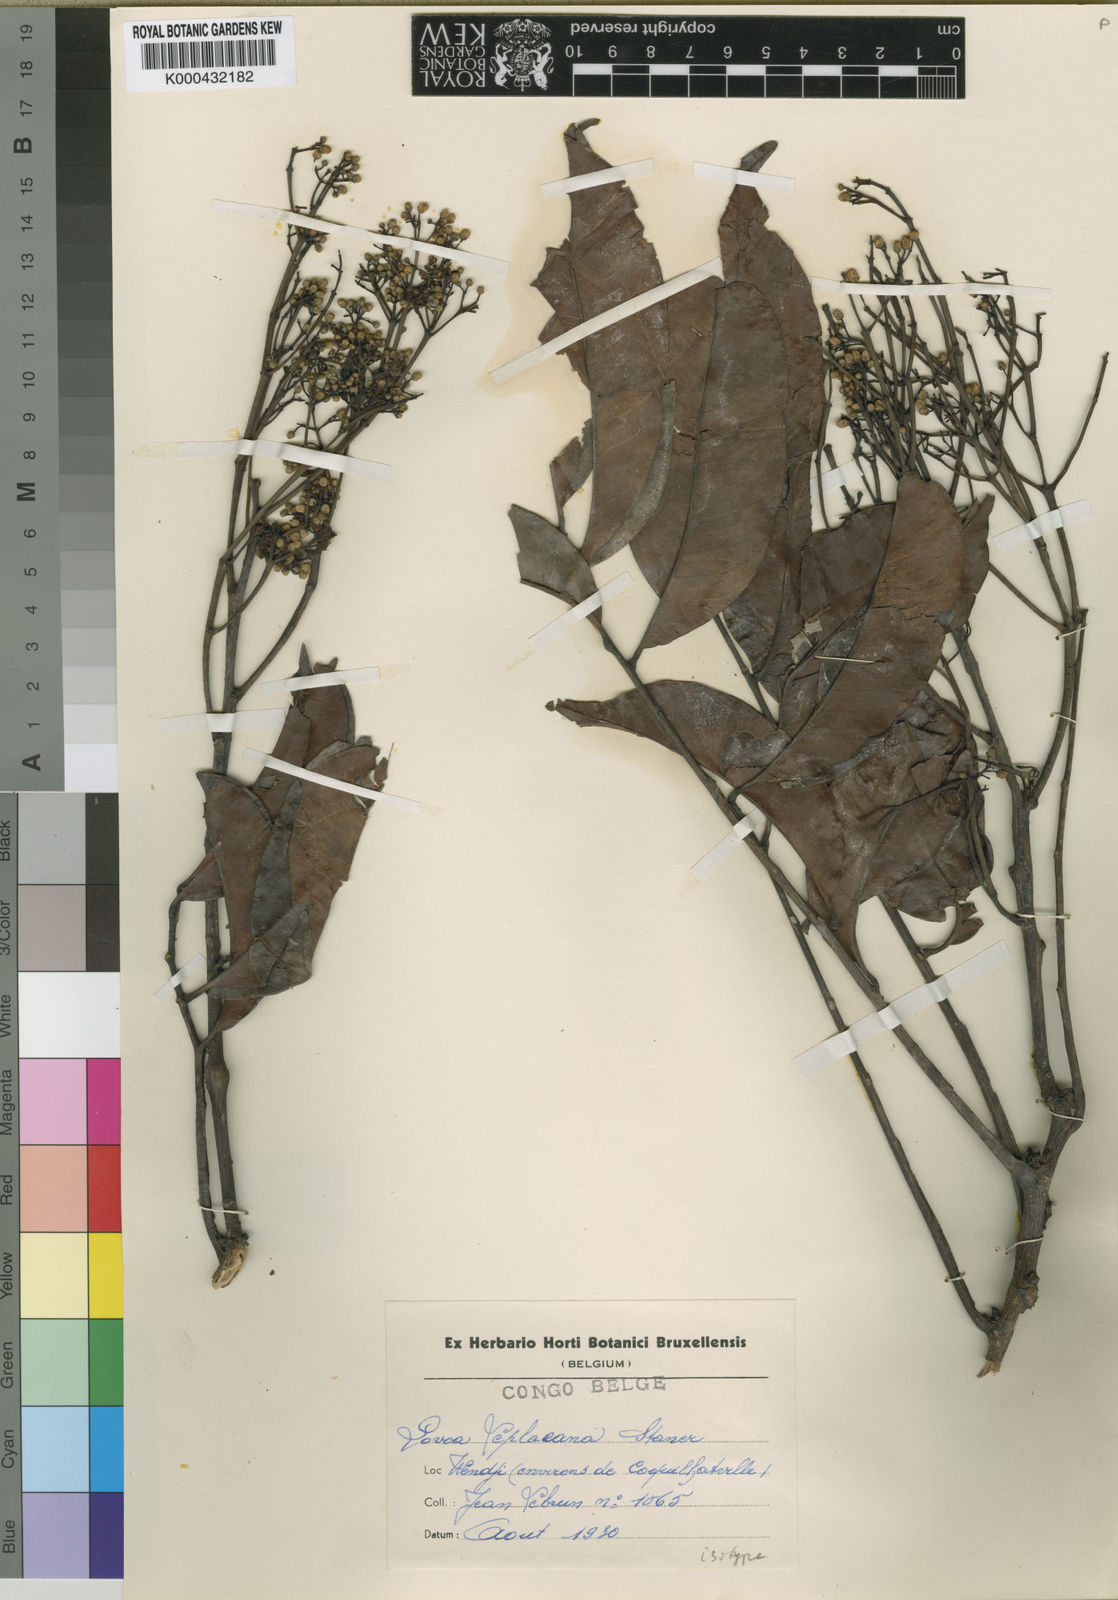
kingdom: Plantae
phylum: Tracheophyta
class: Magnoliopsida
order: Sapindales
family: Meliaceae
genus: Lovoa
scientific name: Lovoa trichilioides
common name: Congowood
